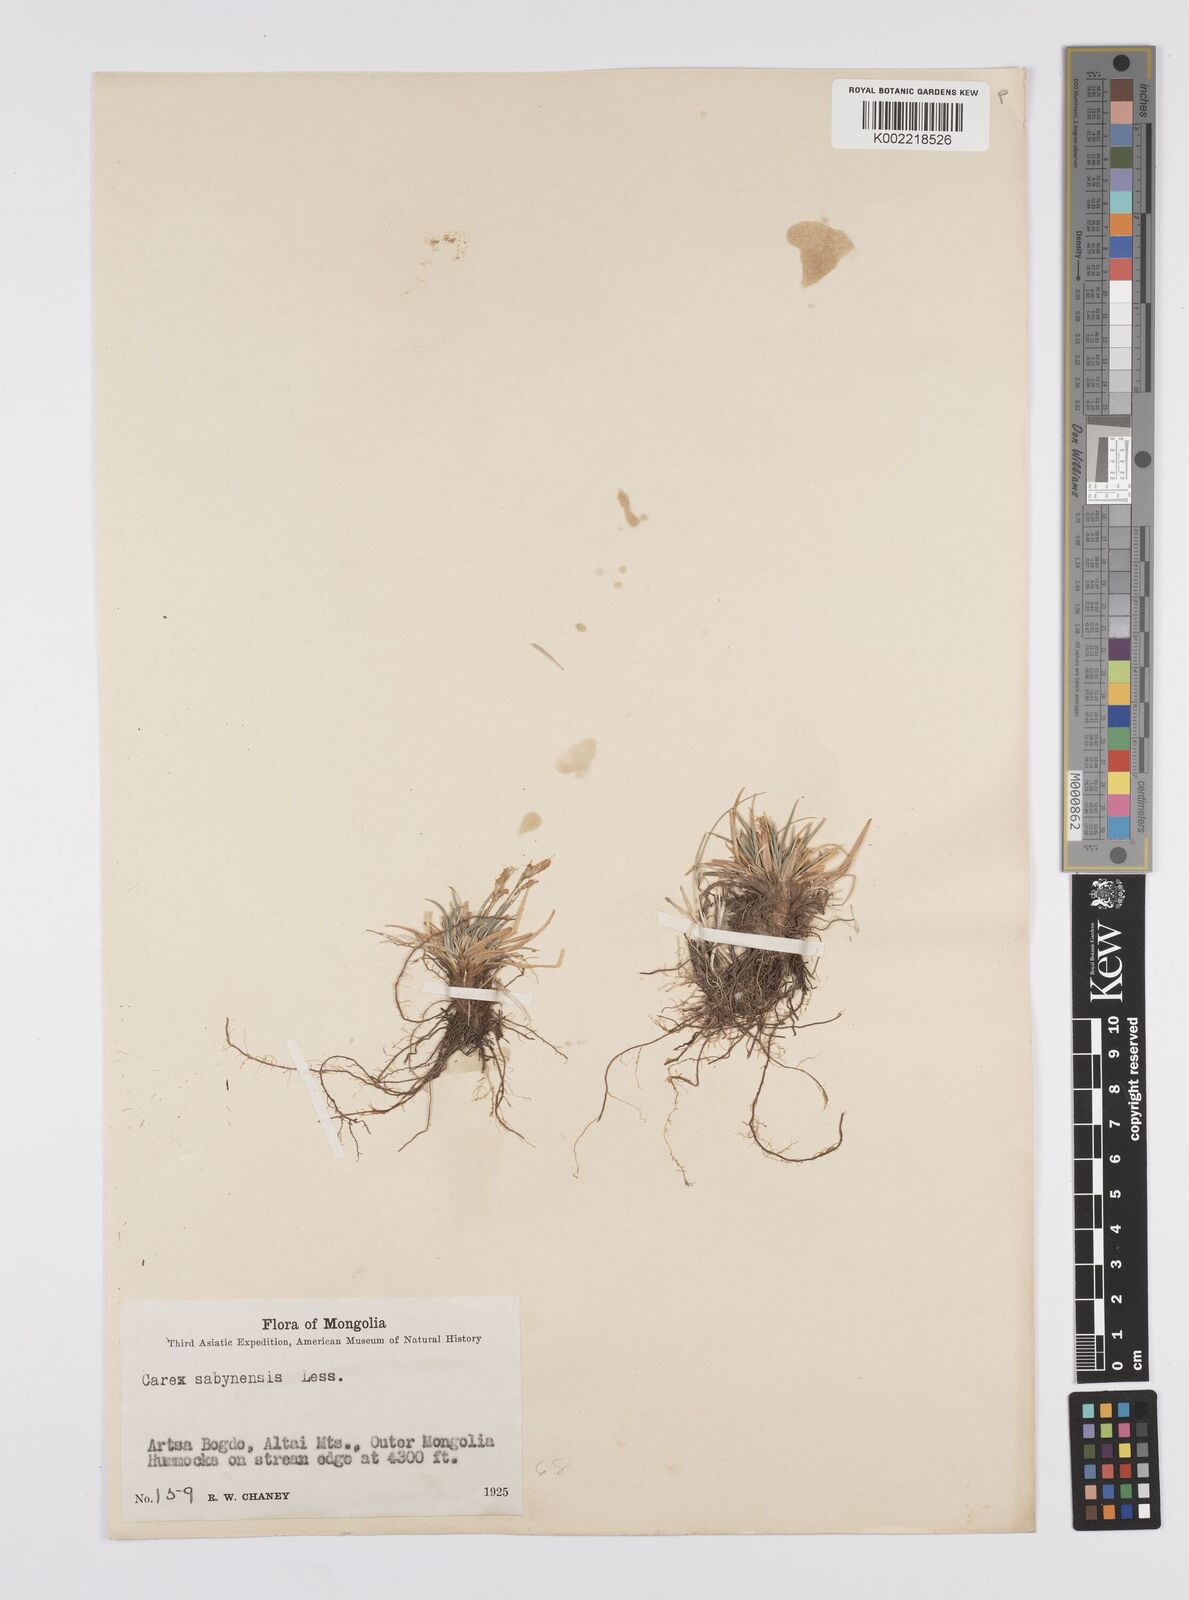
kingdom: Plantae
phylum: Tracheophyta
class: Liliopsida
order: Poales
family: Cyperaceae
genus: Carex
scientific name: Carex umbrosa
